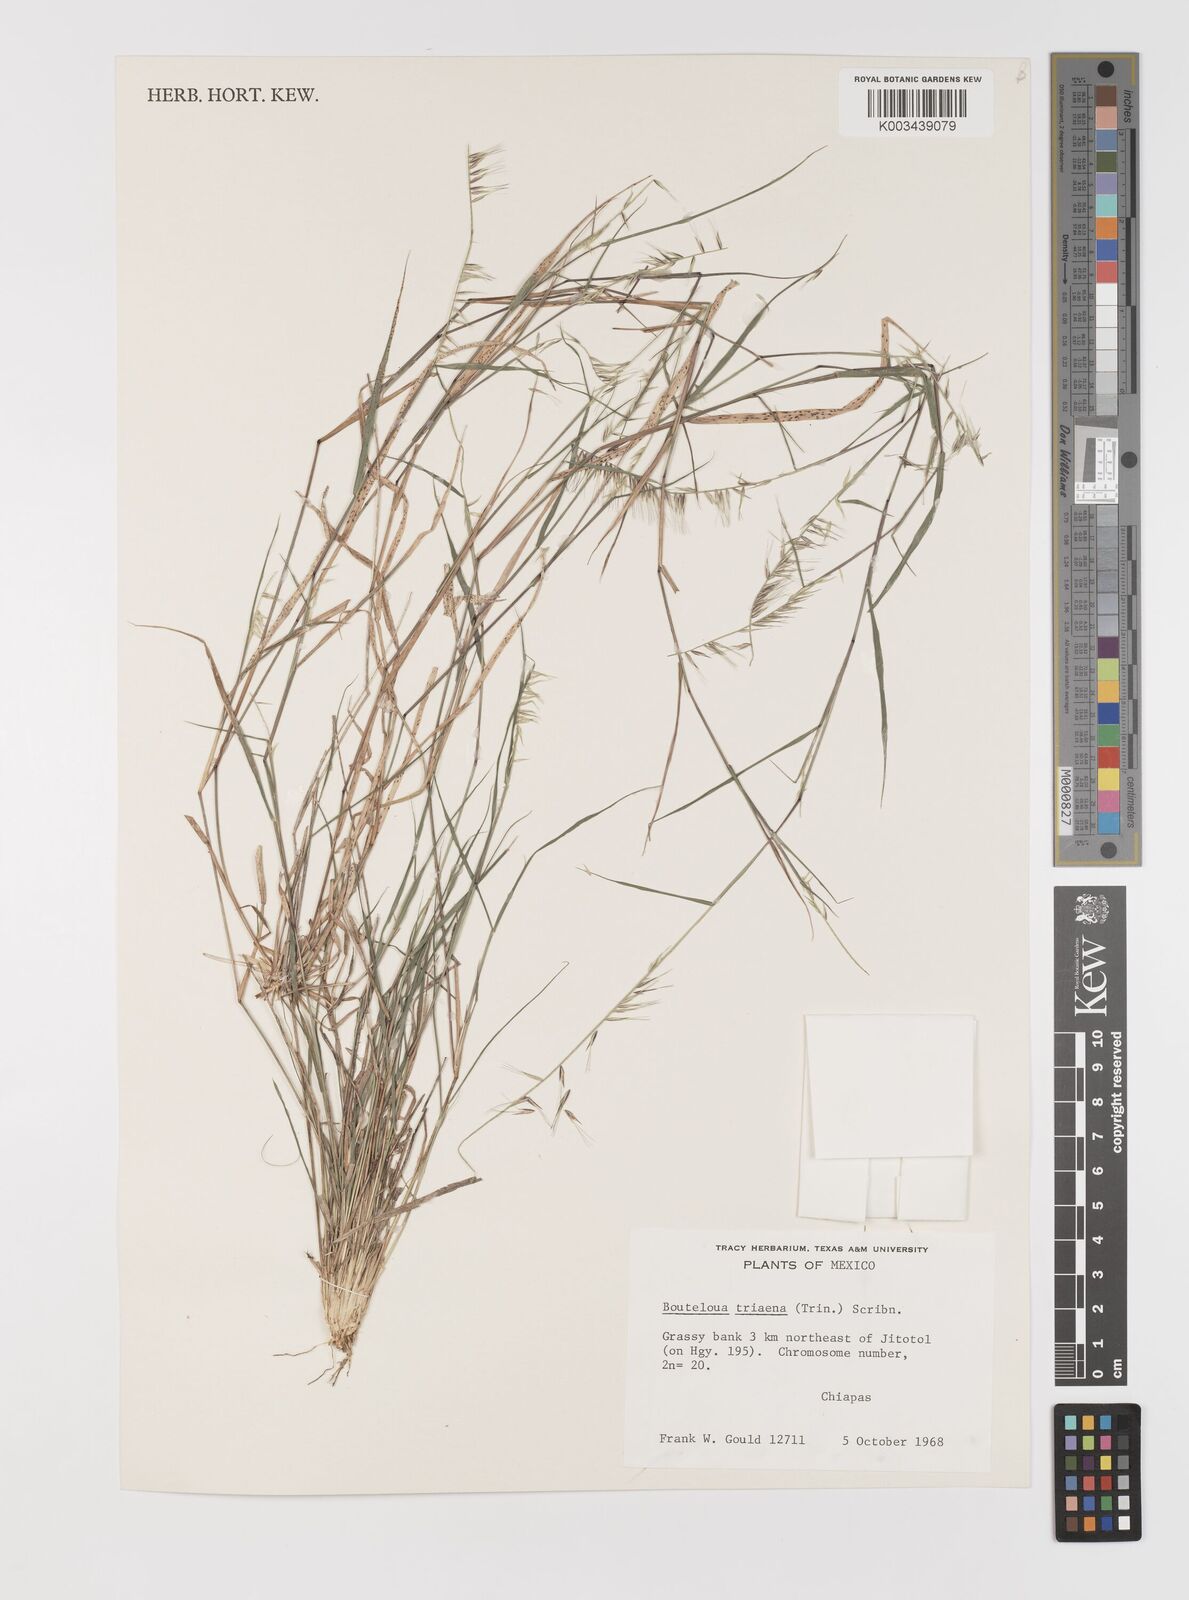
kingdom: Plantae
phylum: Tracheophyta
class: Liliopsida
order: Poales
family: Poaceae
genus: Bouteloua
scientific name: Bouteloua triaena
